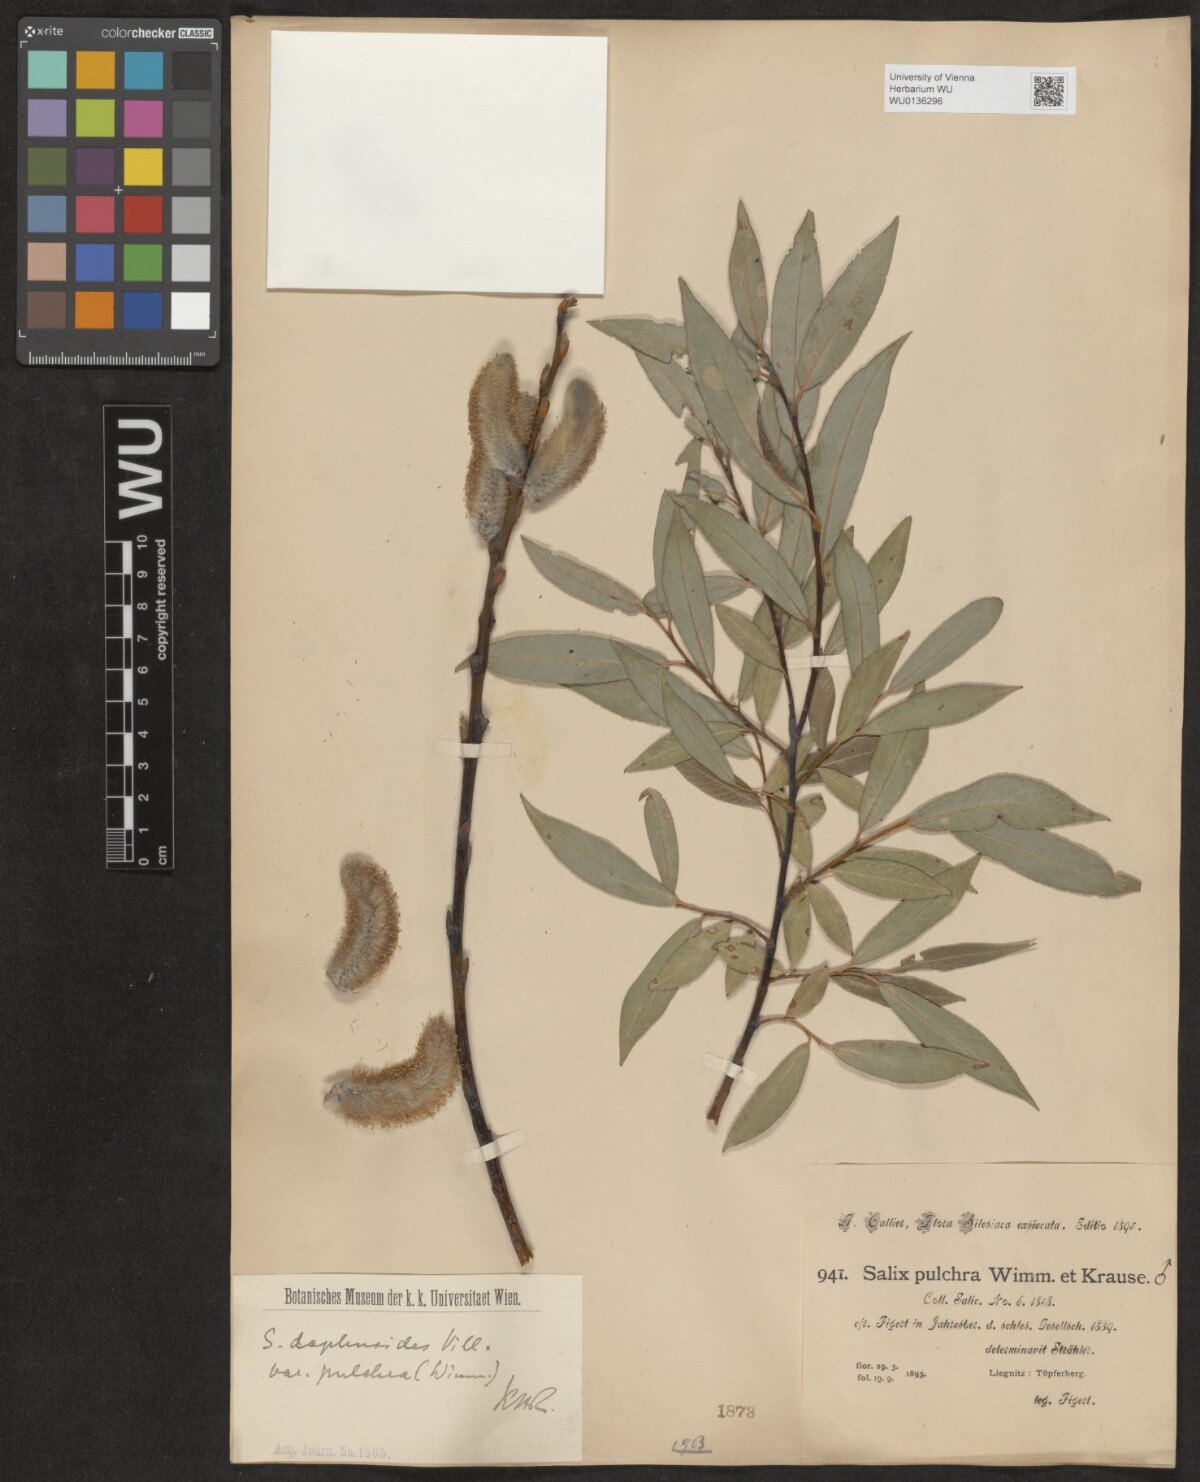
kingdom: Plantae
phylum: Tracheophyta
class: Magnoliopsida
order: Malpighiales
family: Salicaceae
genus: Salix
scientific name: Salix daphnoides
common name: European violet-willow
